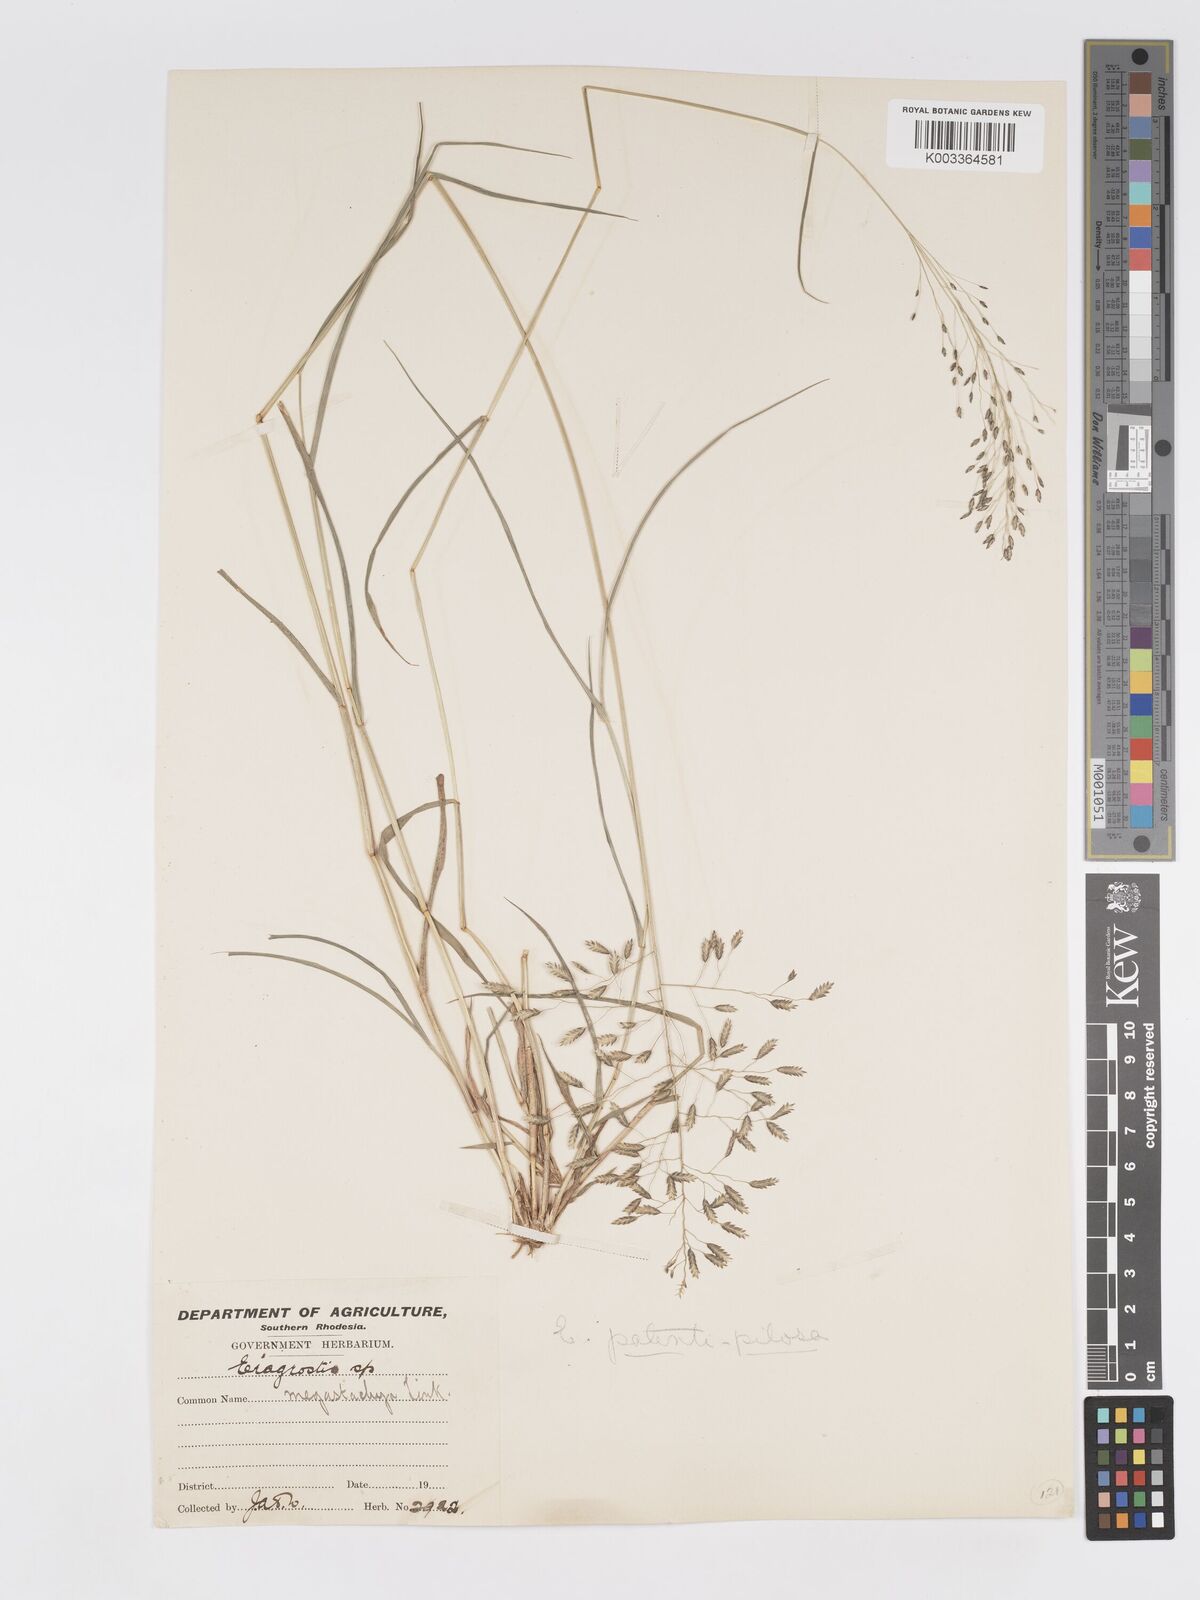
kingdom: Plantae
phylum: Tracheophyta
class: Liliopsida
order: Poales
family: Poaceae
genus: Eragrostis
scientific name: Eragrostis patentipilosa
